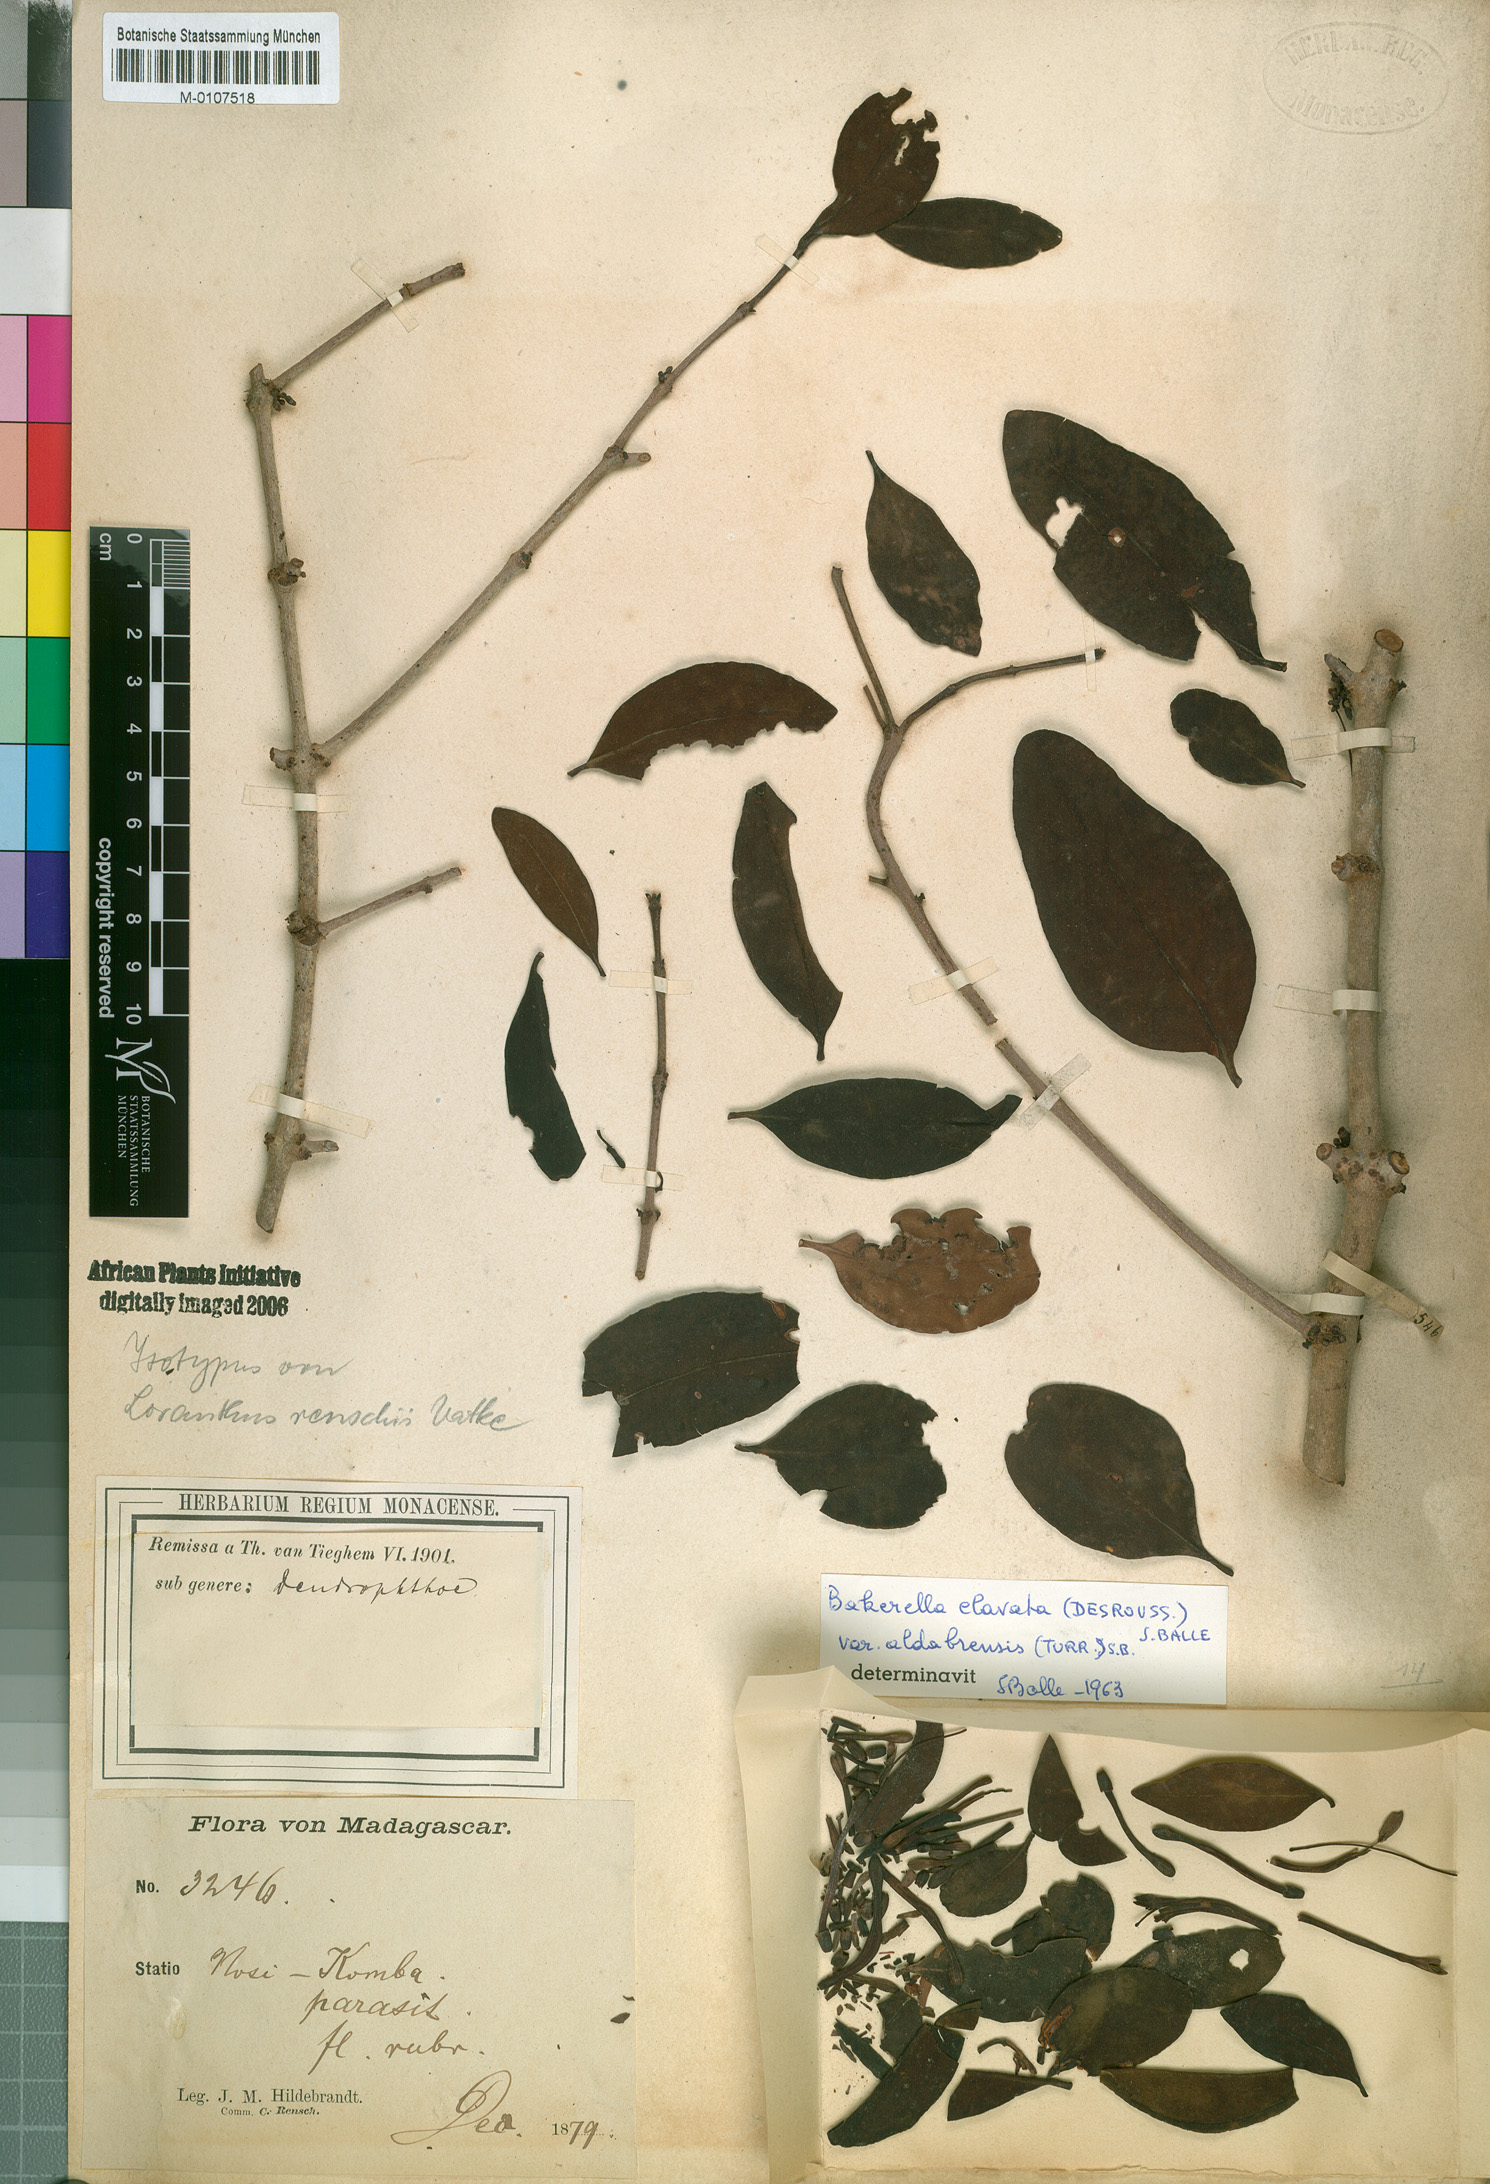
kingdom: Plantae
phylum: Tracheophyta
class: Magnoliopsida
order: Santalales
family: Loranthaceae
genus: Bakerella
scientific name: Bakerella clavata
